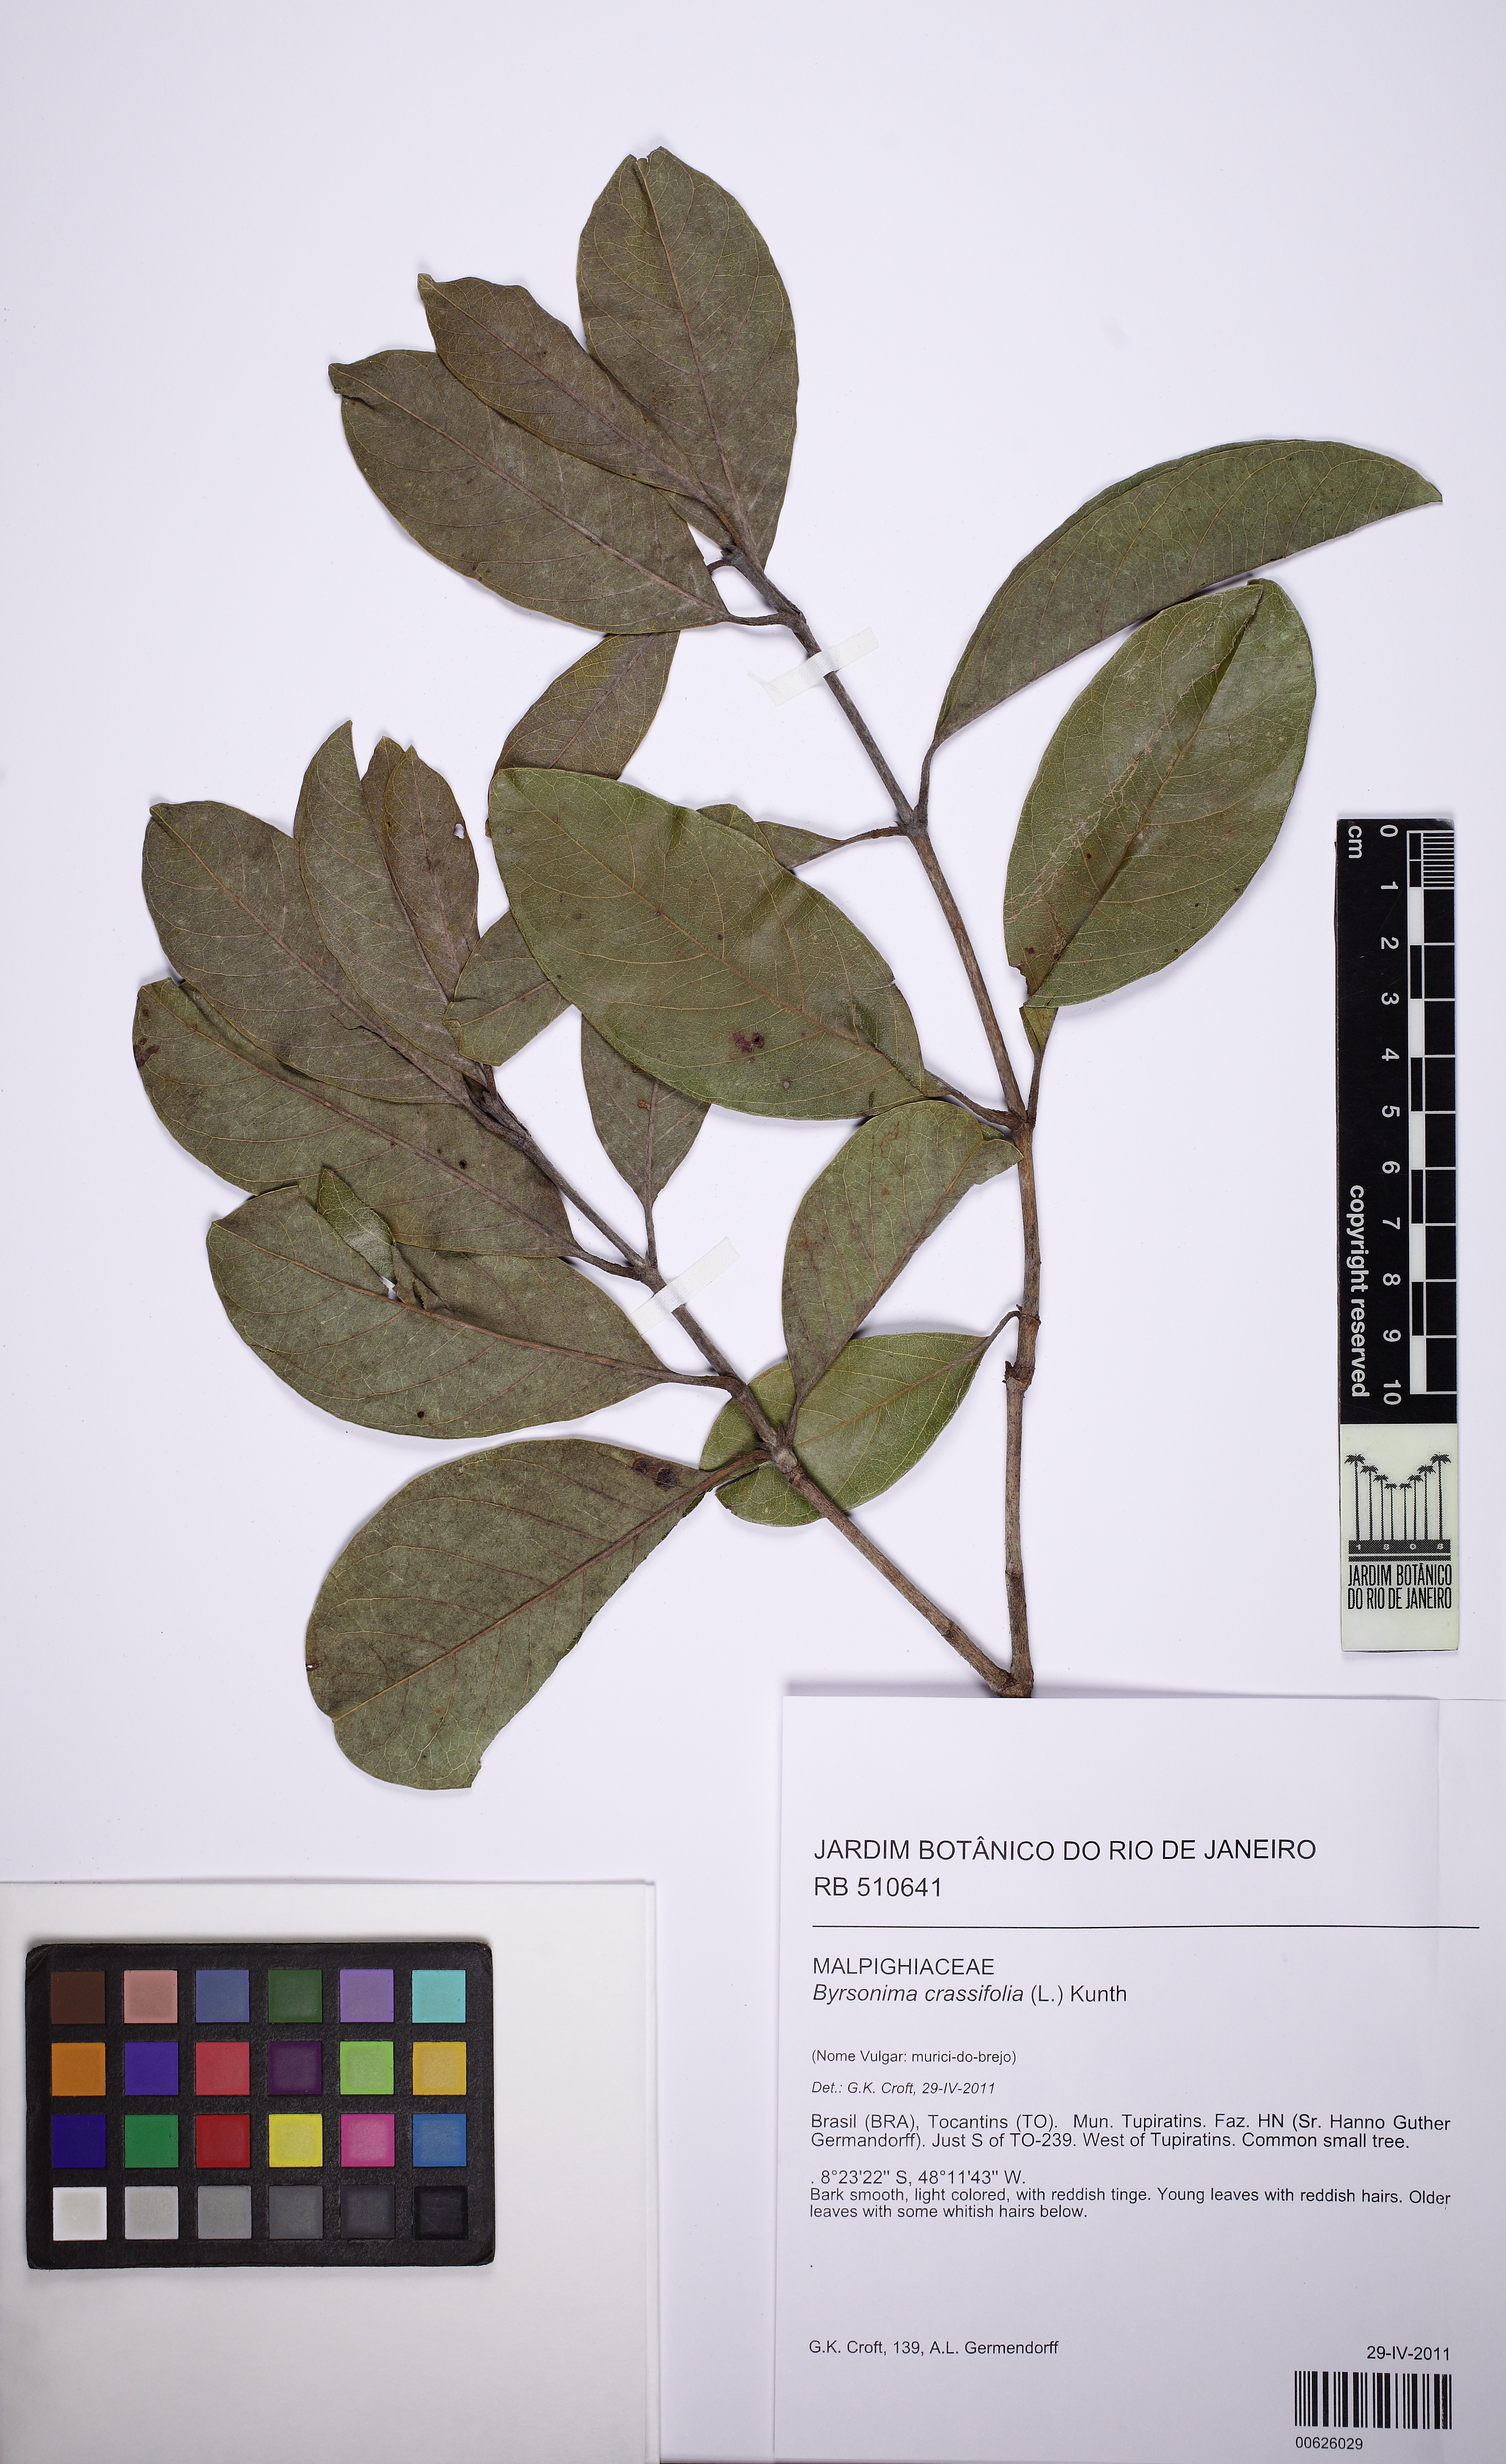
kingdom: Plantae
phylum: Tracheophyta
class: Magnoliopsida
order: Malpighiales
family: Malpighiaceae
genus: Byrsonima
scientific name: Byrsonima crassifolia
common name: Golden spoon
